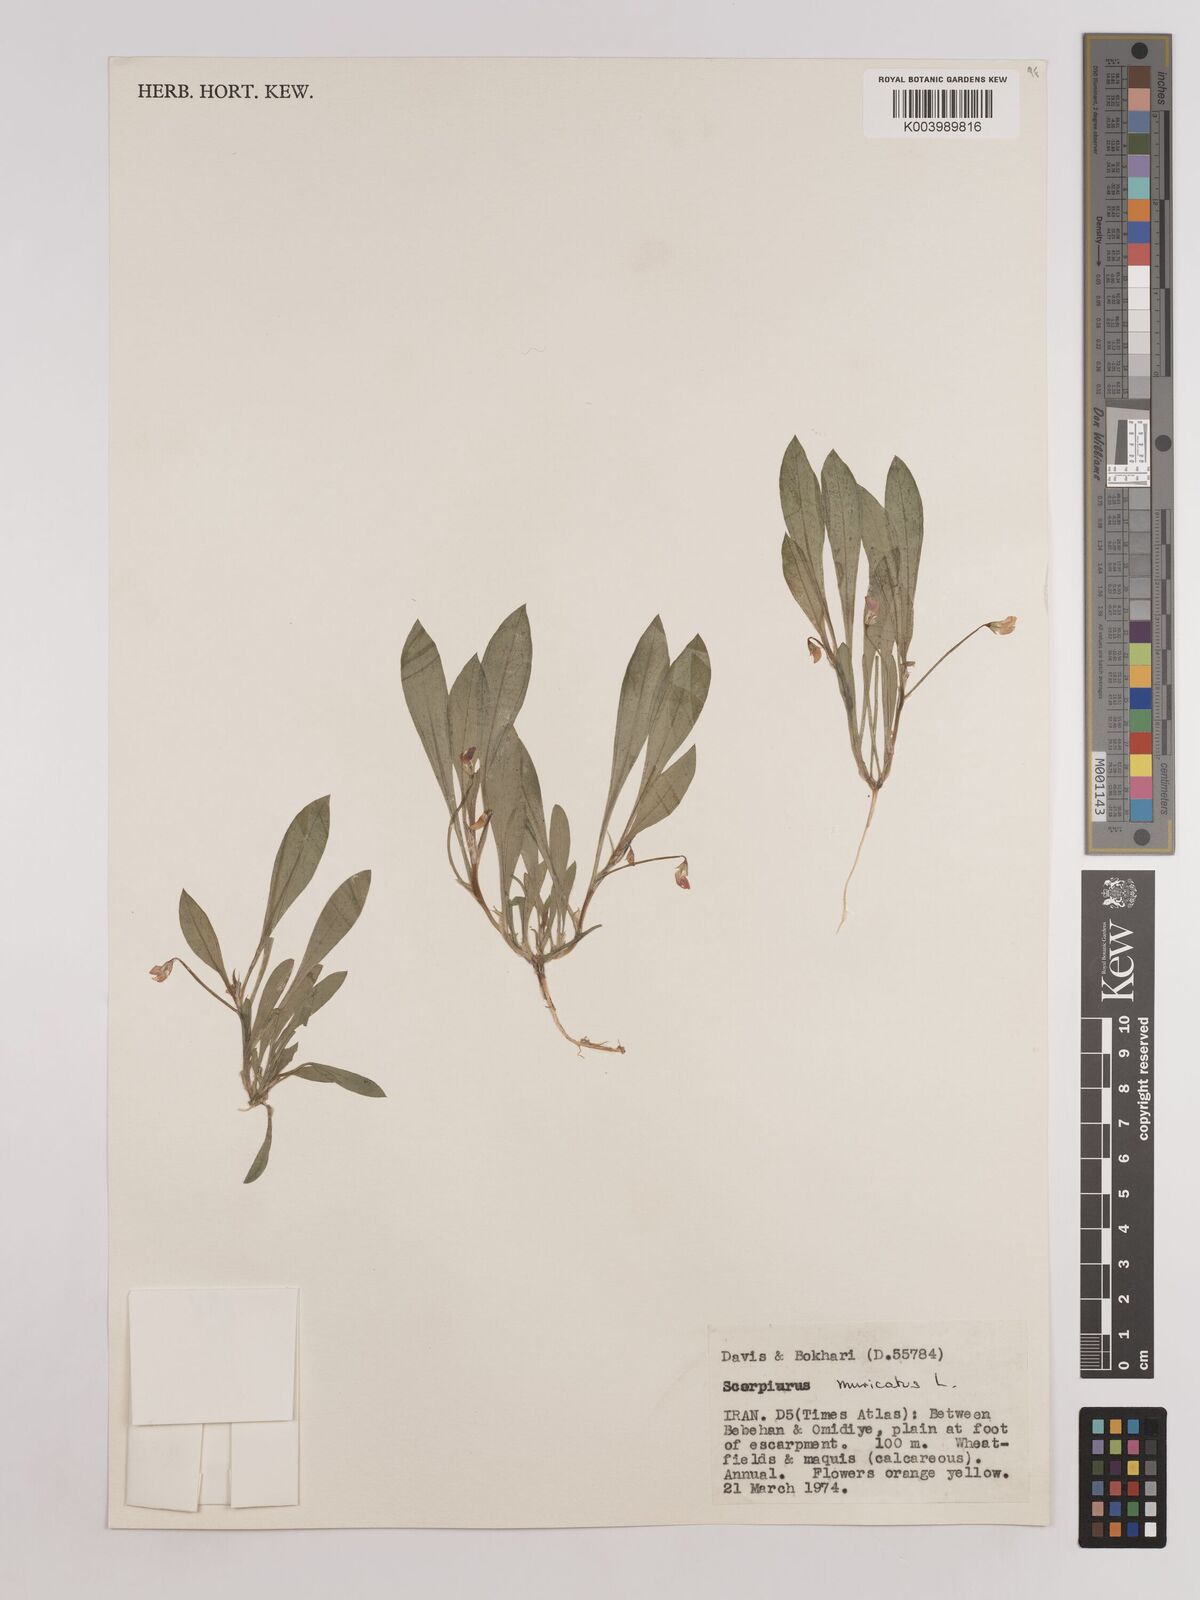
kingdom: Plantae
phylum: Tracheophyta
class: Magnoliopsida
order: Fabales
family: Fabaceae
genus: Scorpiurus
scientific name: Scorpiurus muricatus
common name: Caterpillar-plant
